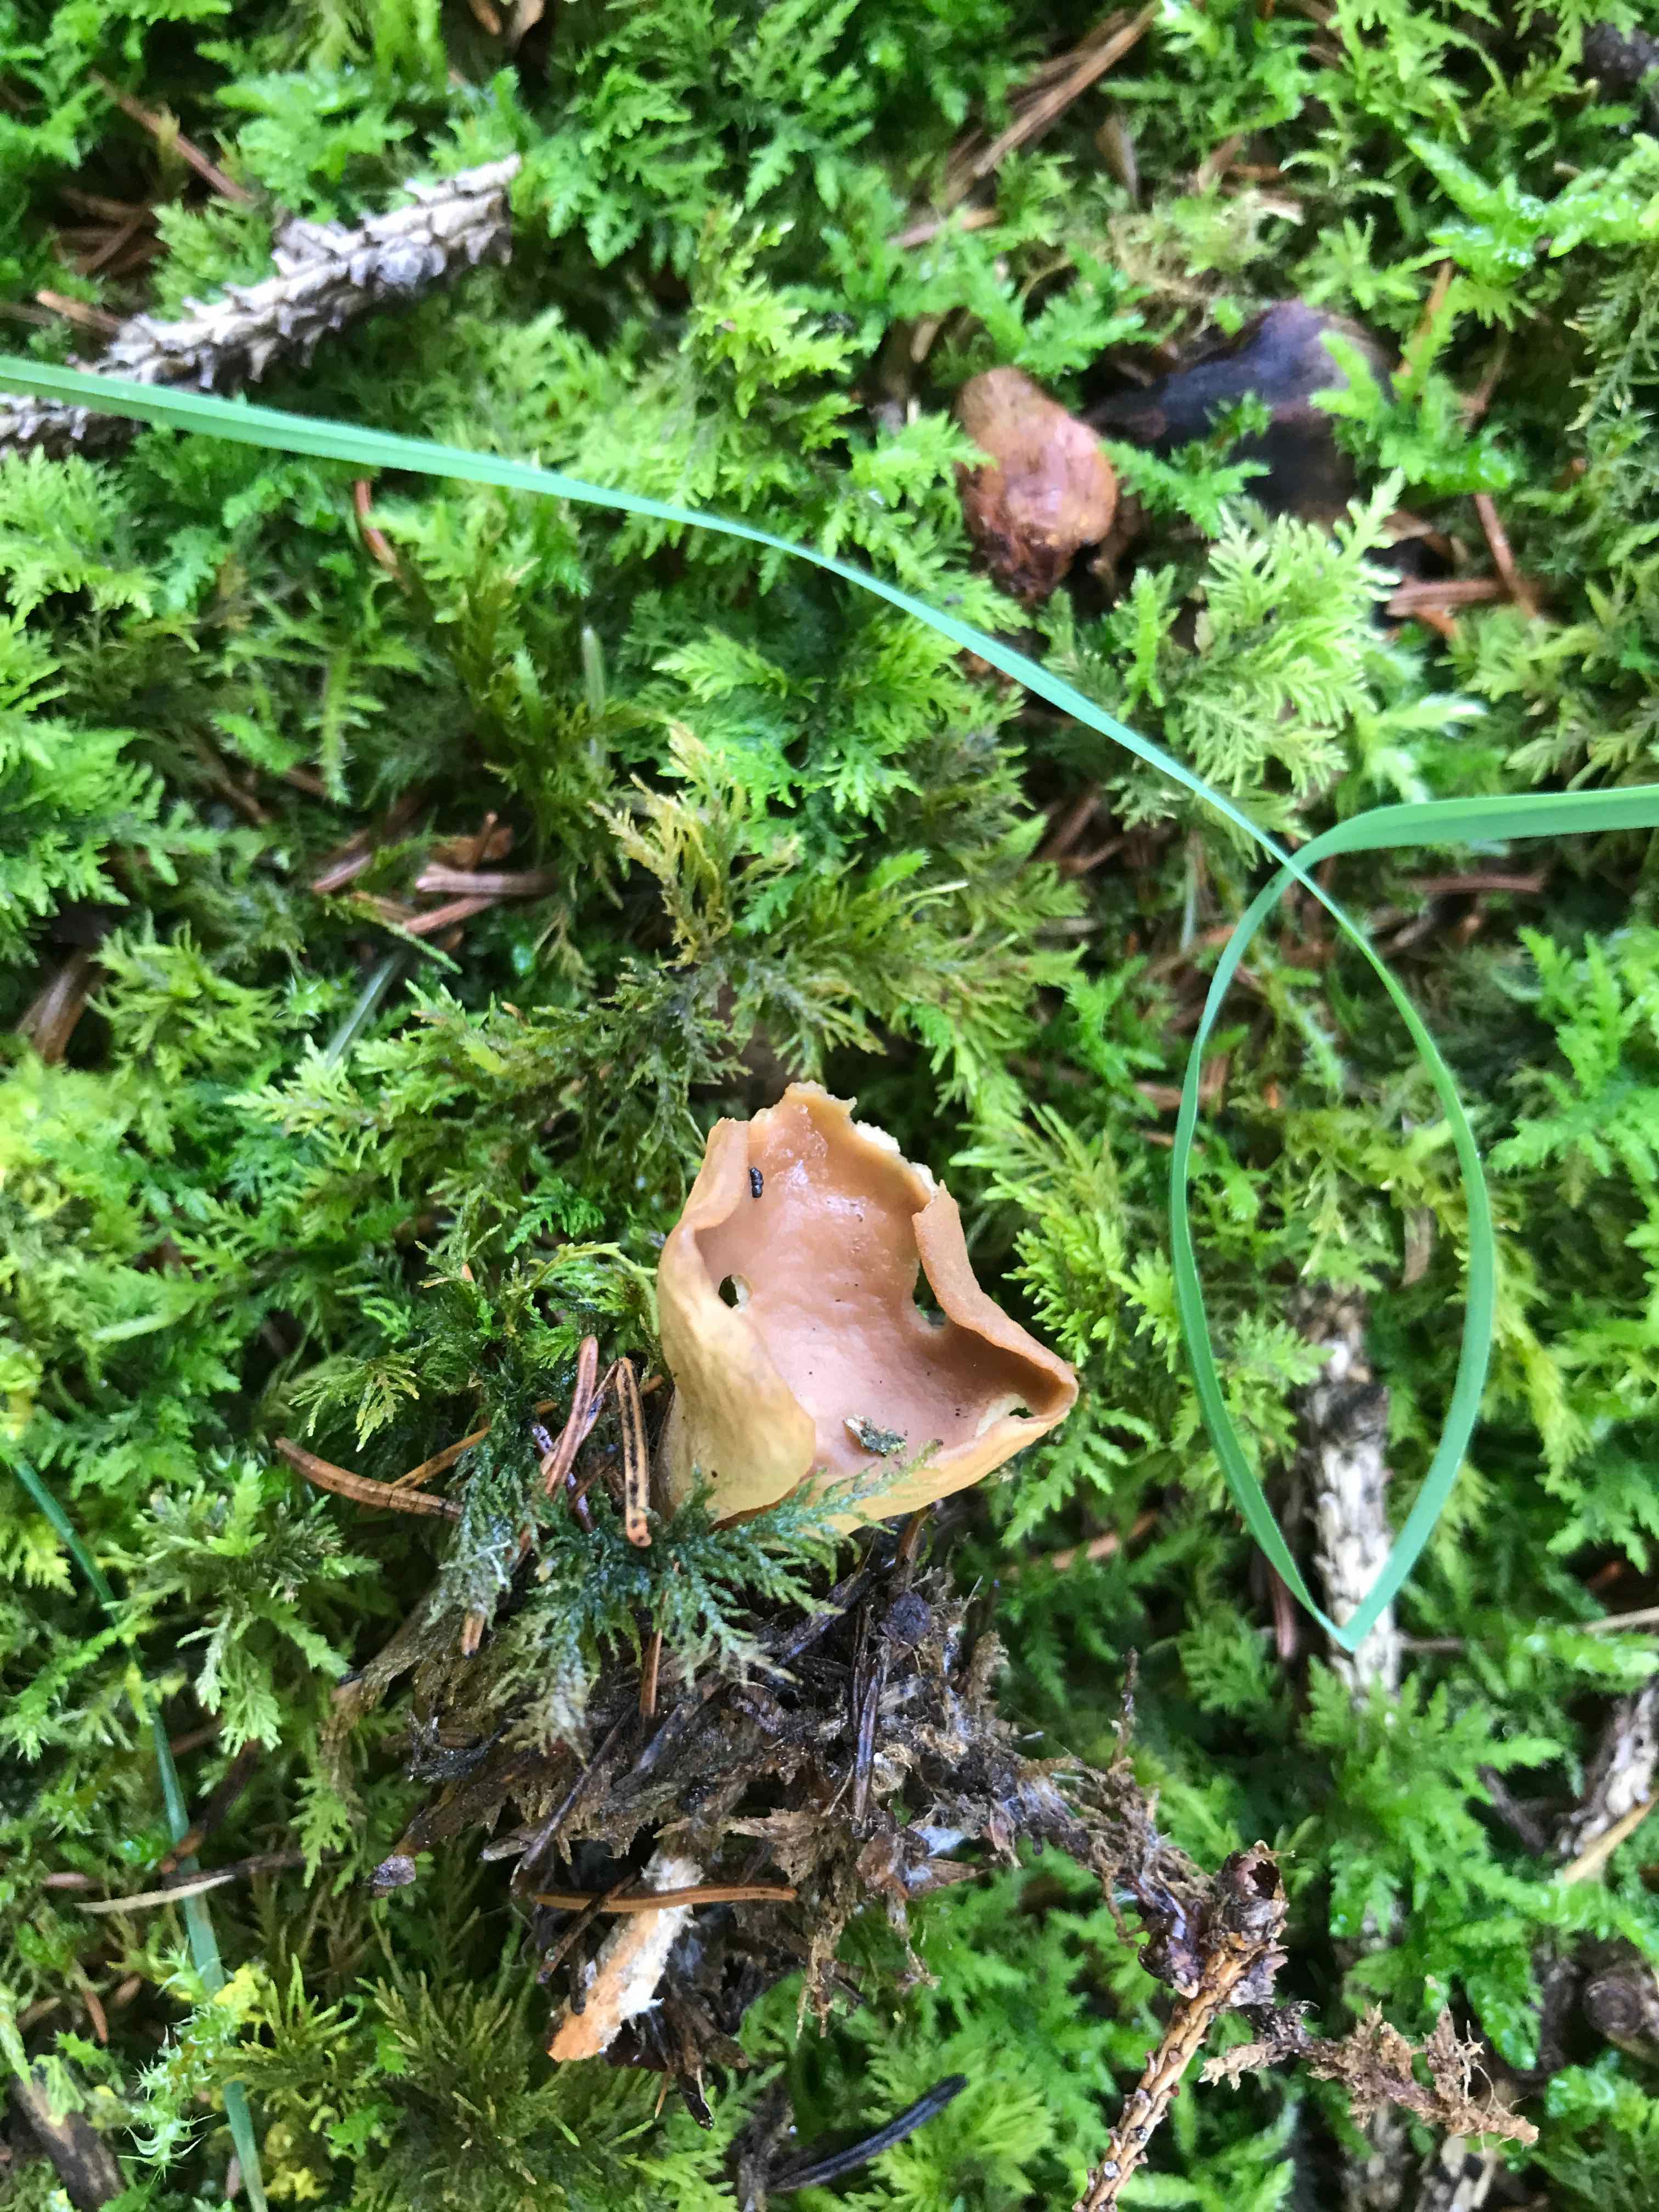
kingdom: Fungi
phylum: Ascomycota
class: Pezizomycetes
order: Pezizales
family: Otideaceae
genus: Otidea
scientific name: Otidea
